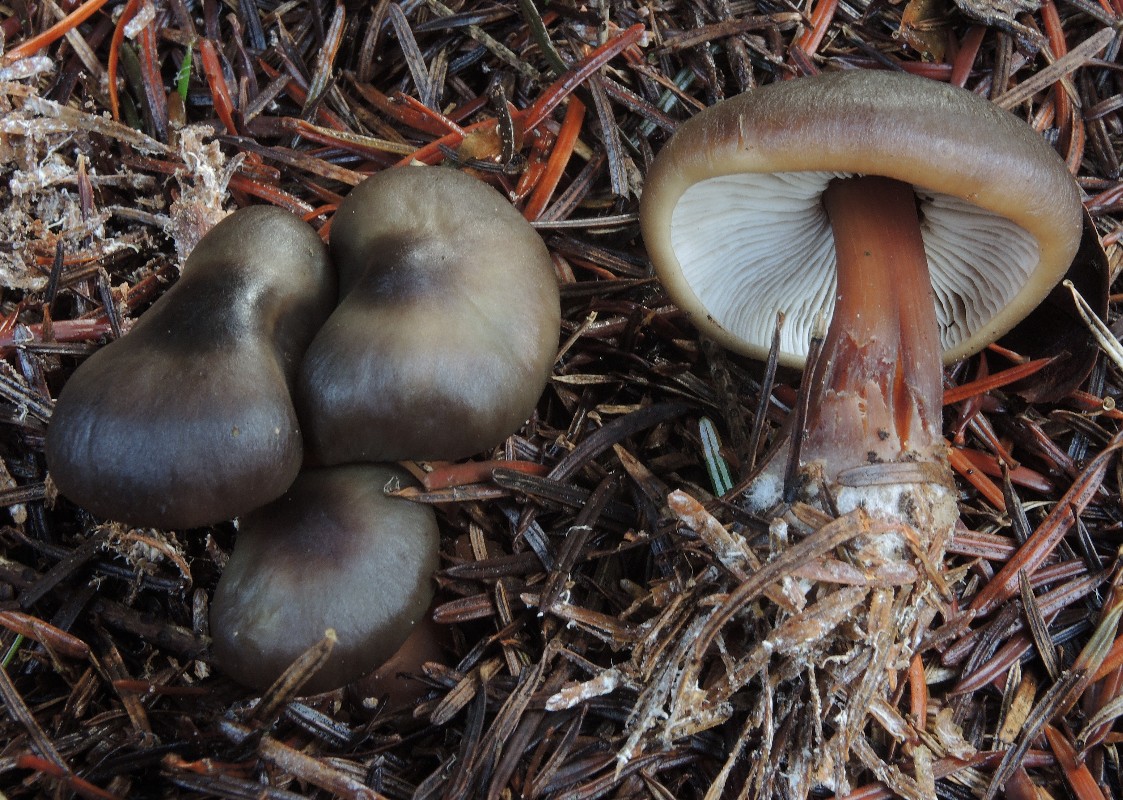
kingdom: Fungi
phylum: Basidiomycota
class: Agaricomycetes
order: Agaricales
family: Omphalotaceae
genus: Rhodocollybia
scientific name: Rhodocollybia butyracea
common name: keglestokket fladhat
